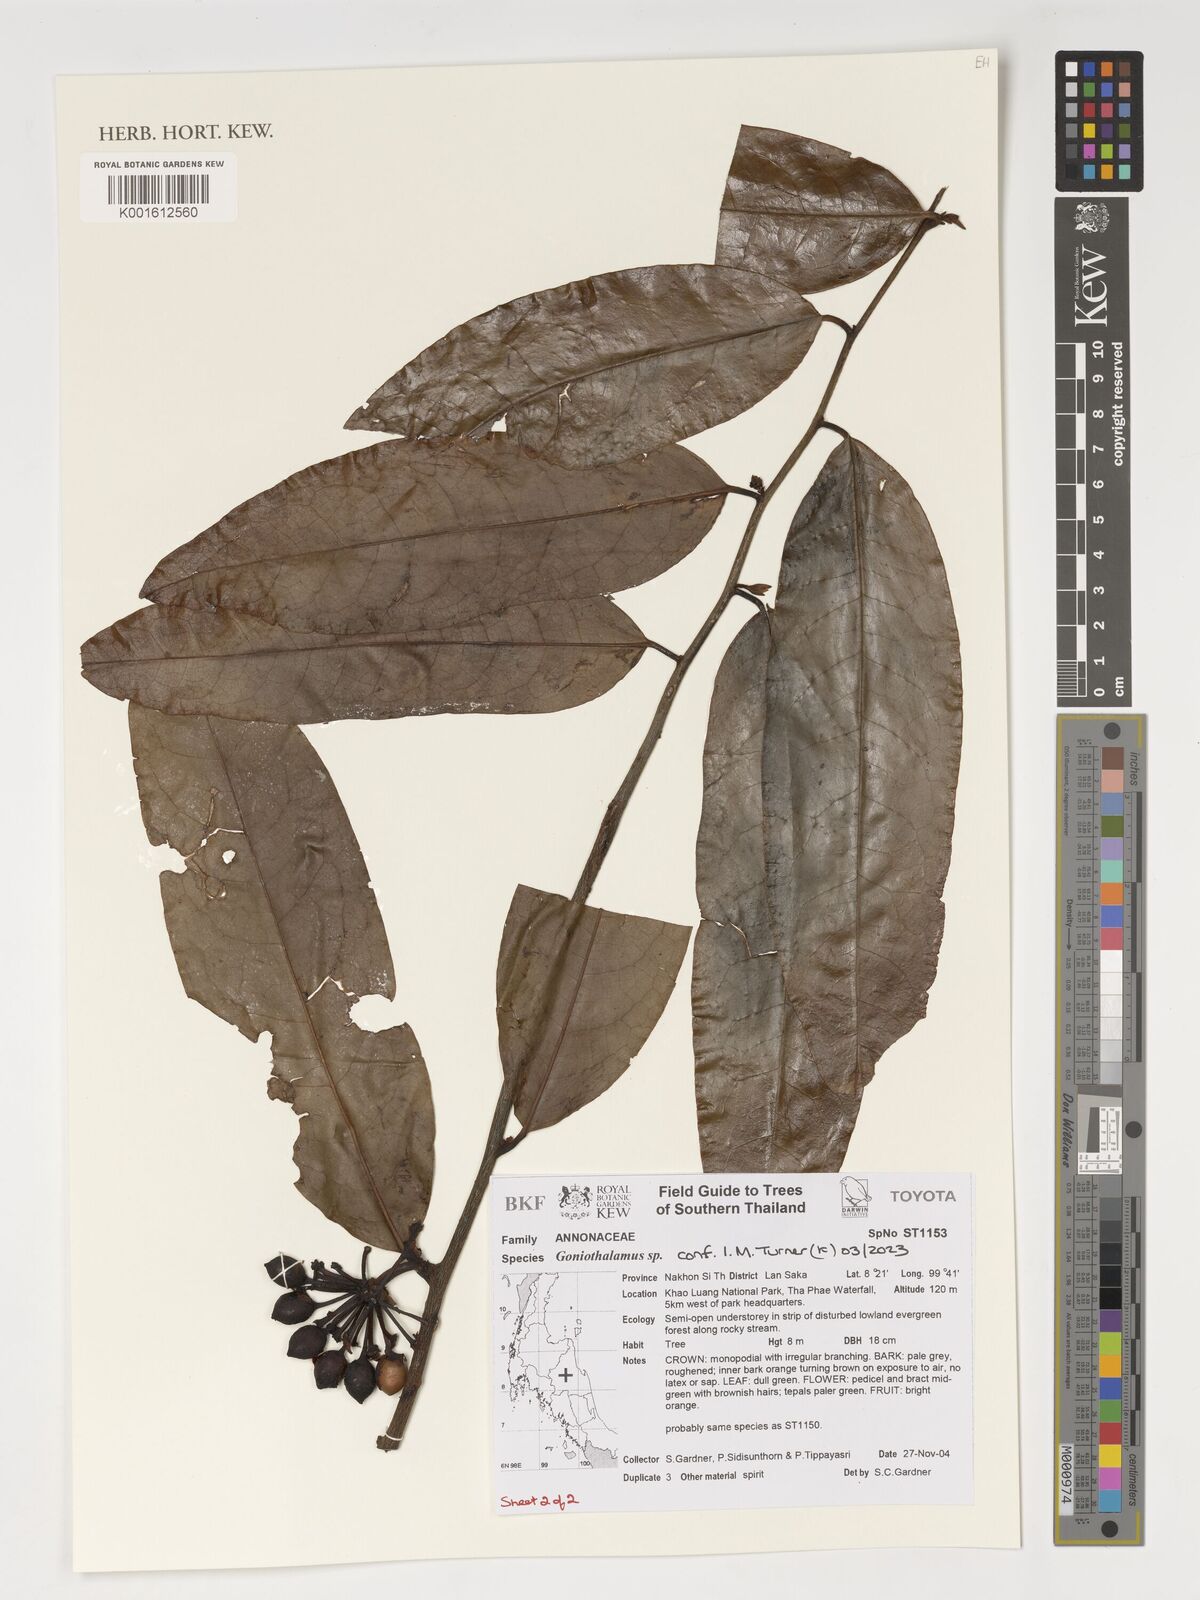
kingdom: Plantae
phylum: Tracheophyta
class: Magnoliopsida
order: Magnoliales
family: Annonaceae
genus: Goniothalamus
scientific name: Goniothalamus
